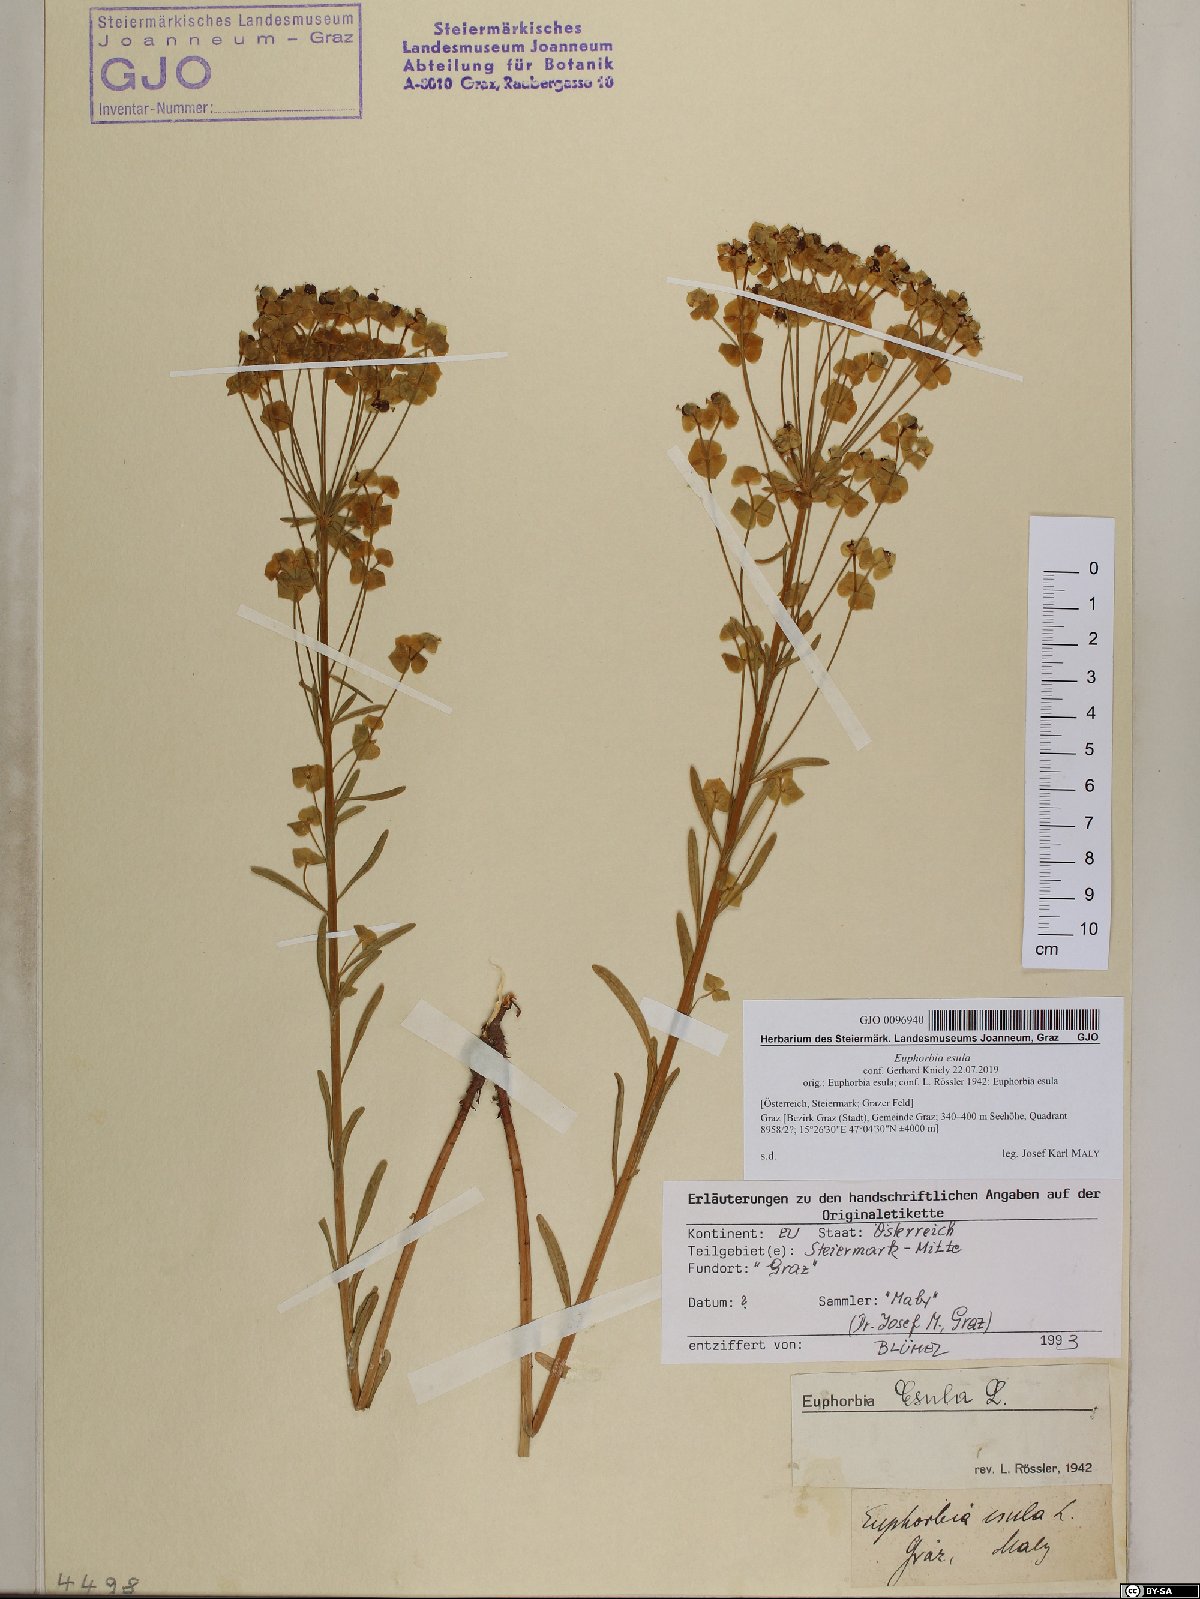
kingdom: Plantae
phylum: Tracheophyta
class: Magnoliopsida
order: Malpighiales
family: Euphorbiaceae
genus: Euphorbia
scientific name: Euphorbia esula
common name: Leafy spurge
